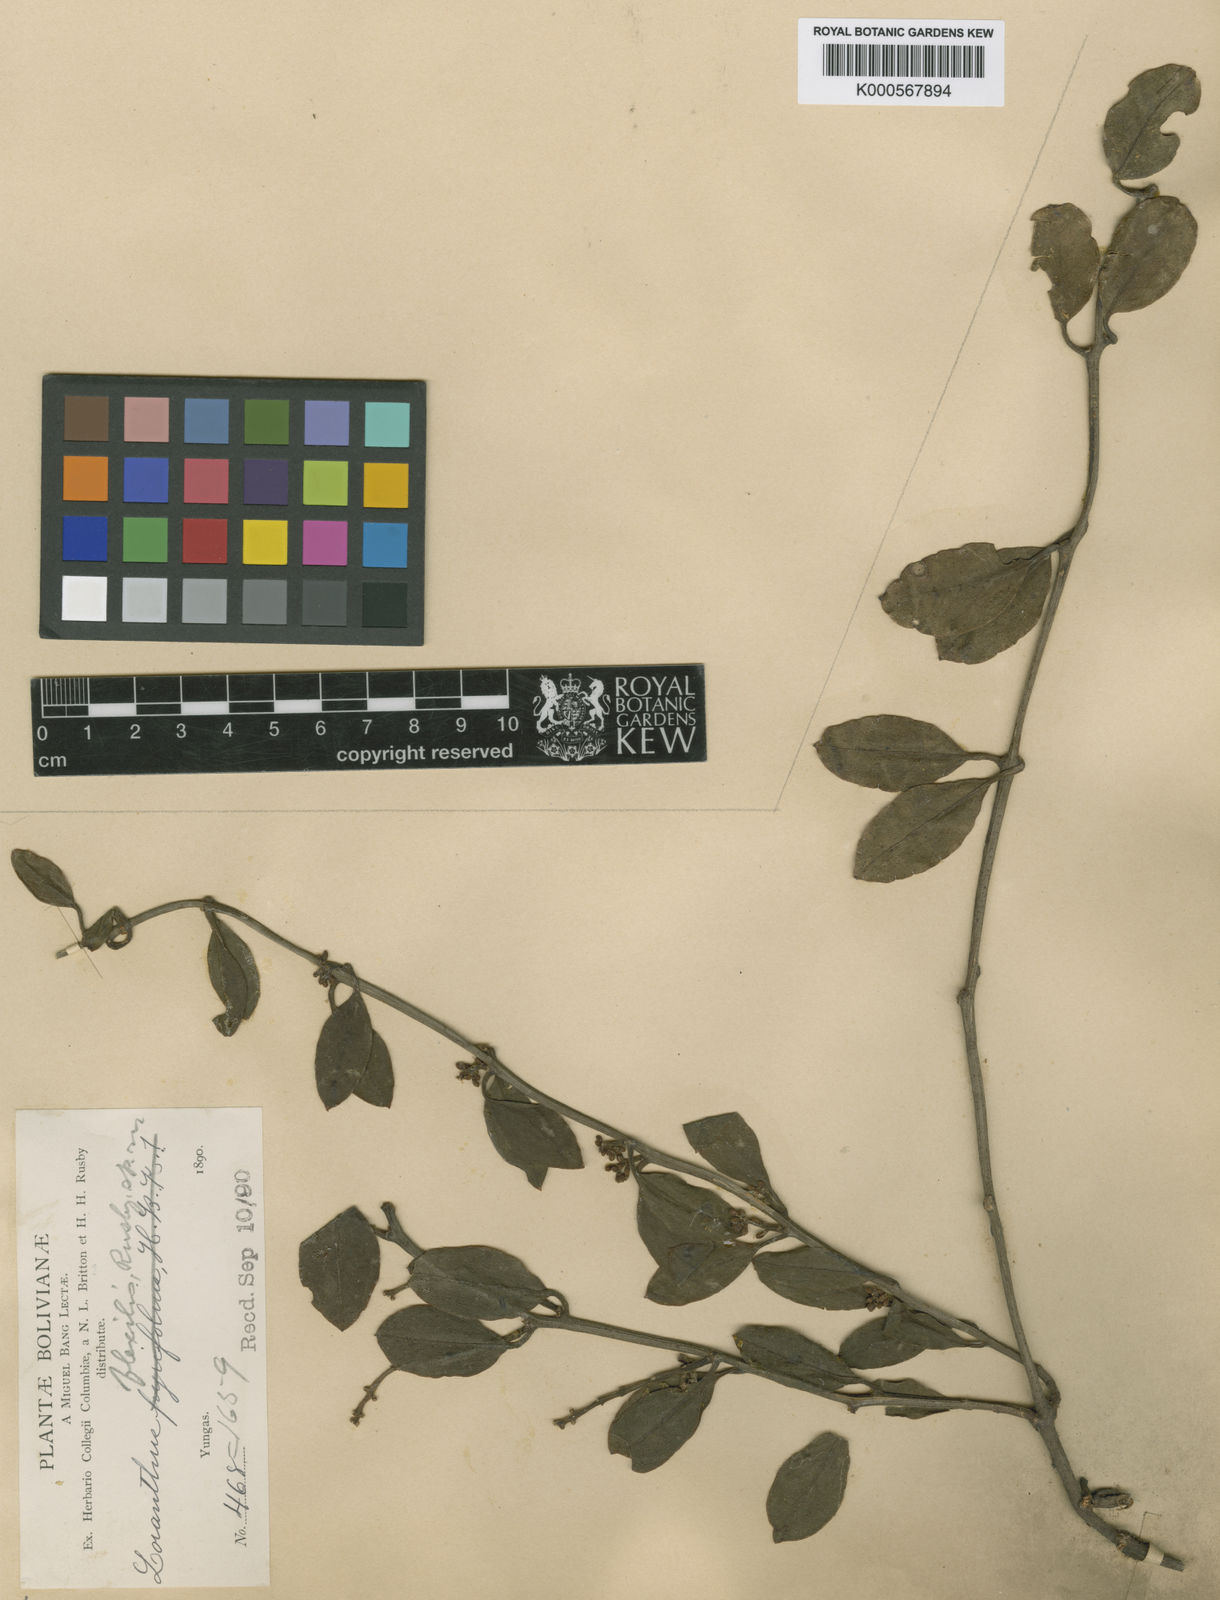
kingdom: Plantae
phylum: Tracheophyta
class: Magnoliopsida
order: Santalales
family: Loranthaceae
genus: Struthanthus
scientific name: Struthanthus flexilis
